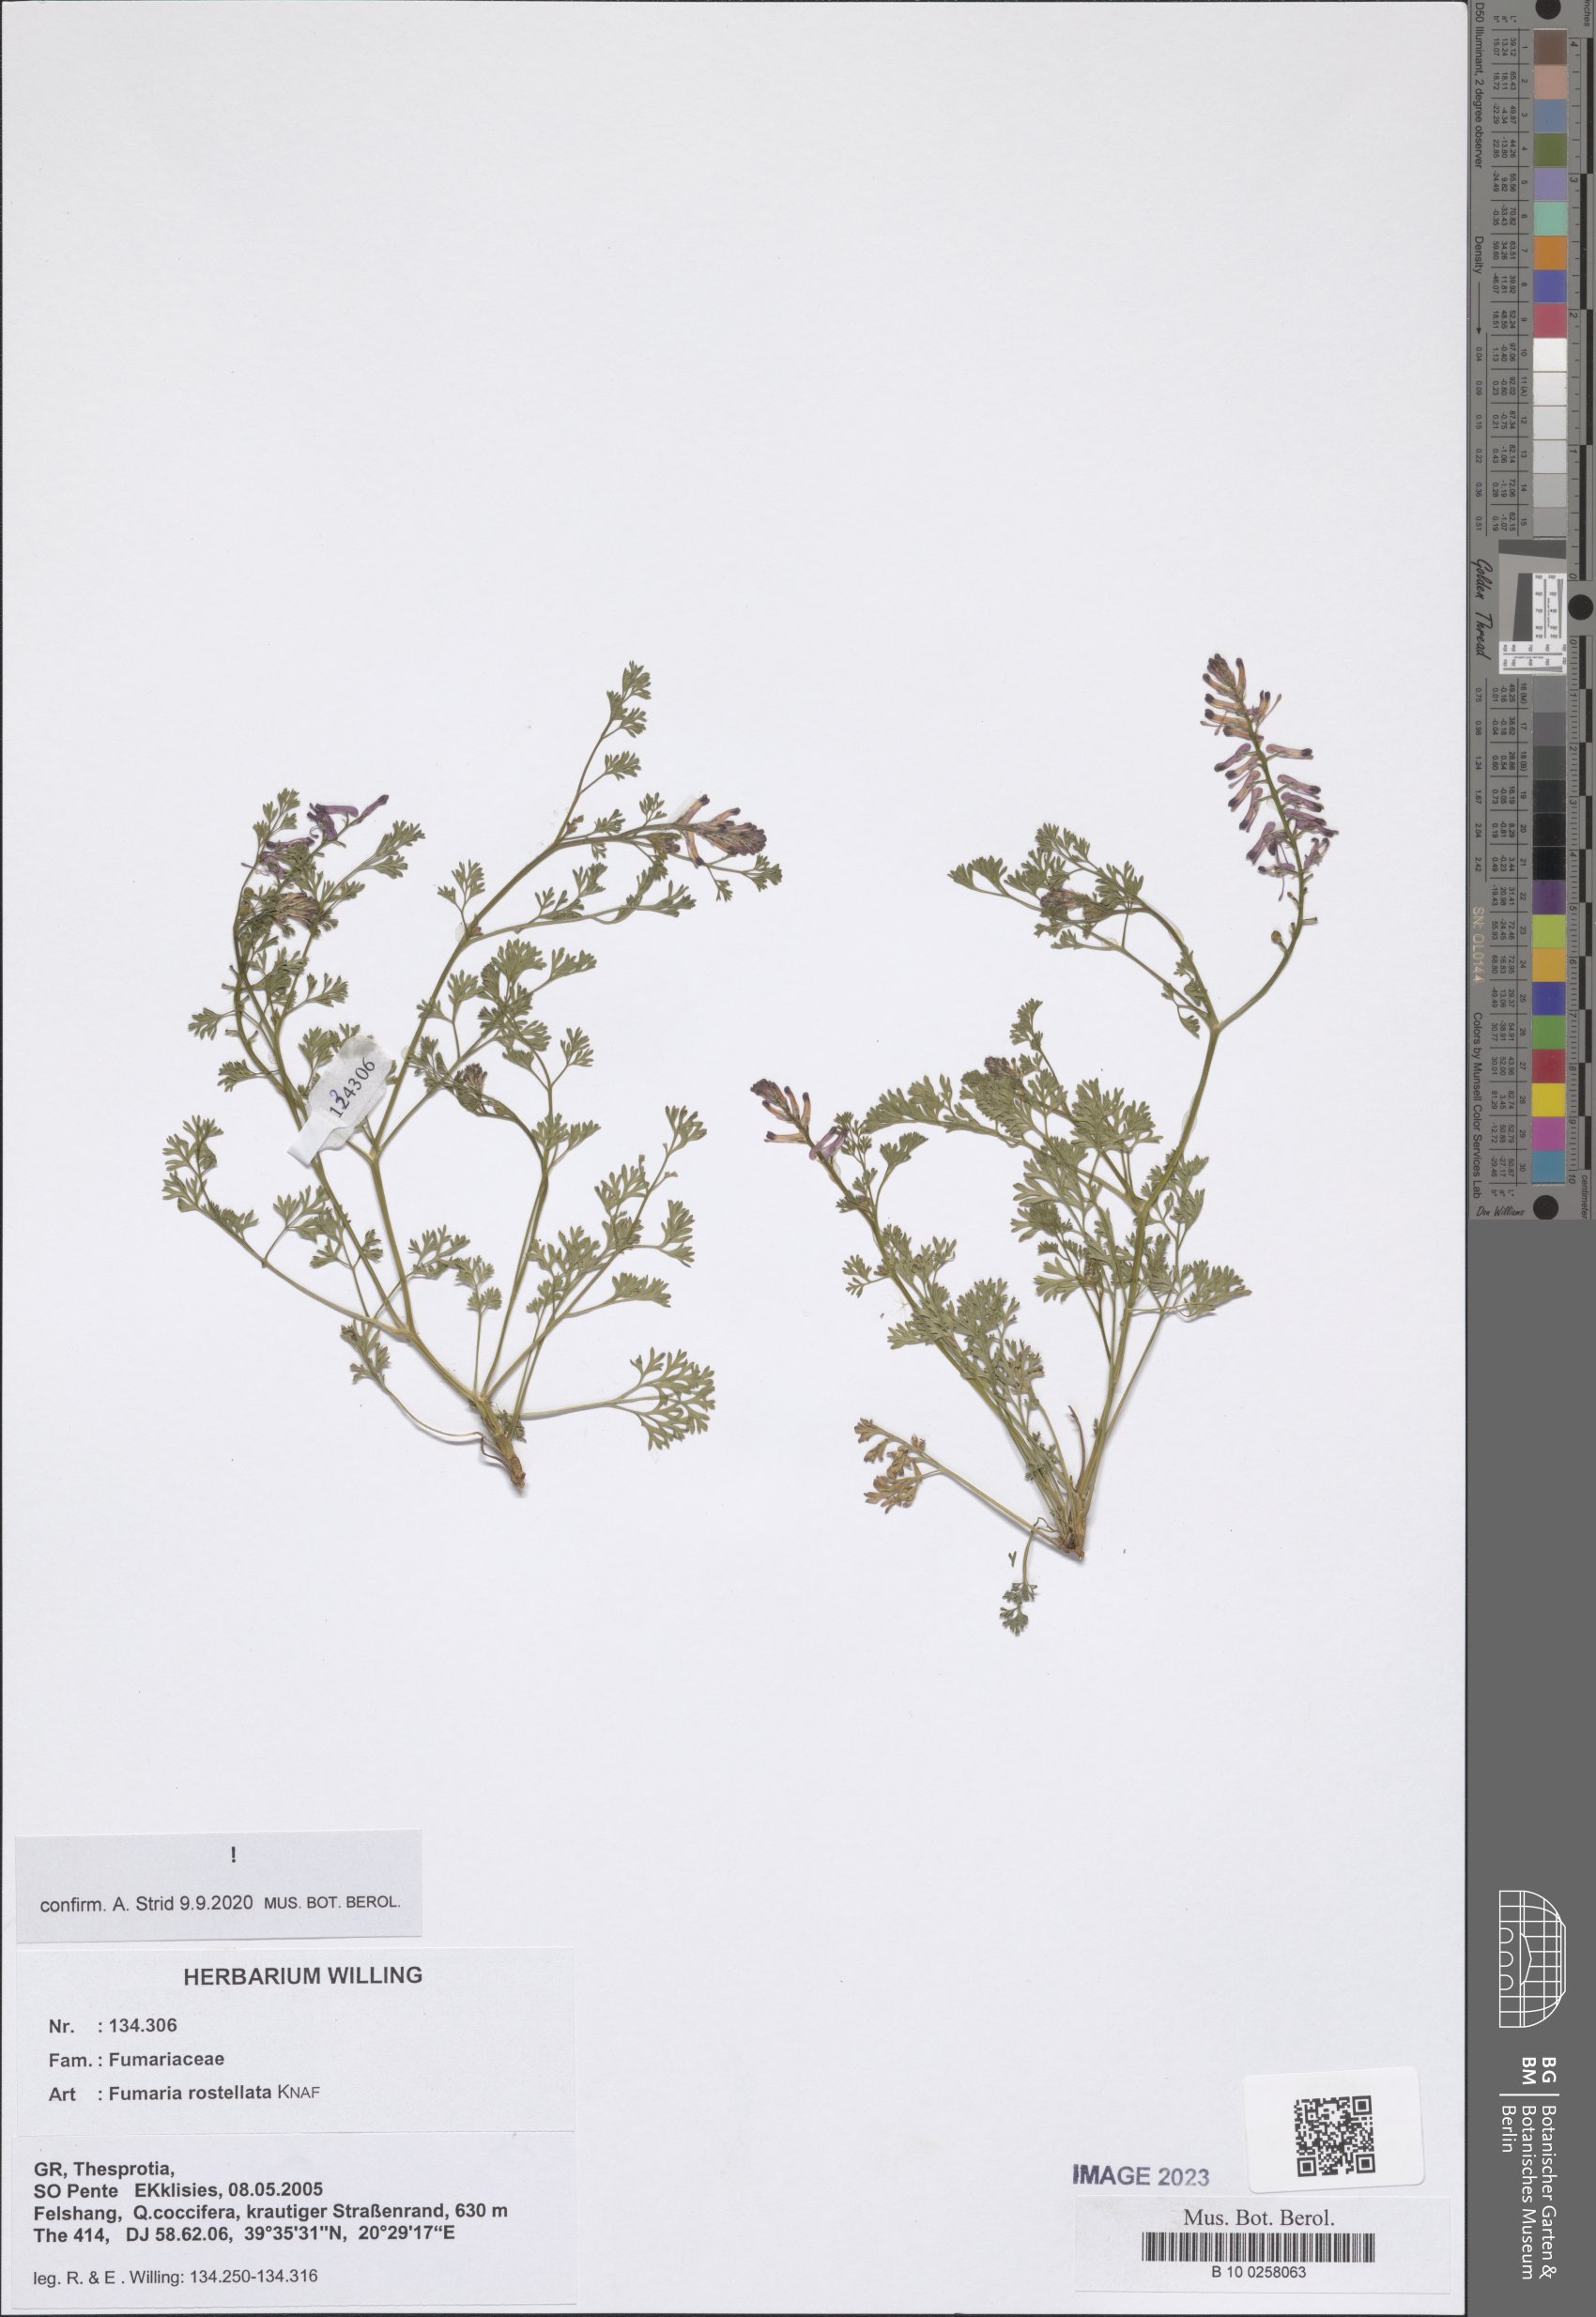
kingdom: Plantae
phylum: Tracheophyta
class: Magnoliopsida
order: Ranunculales
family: Papaveraceae
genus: Fumaria
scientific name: Fumaria rostellata
